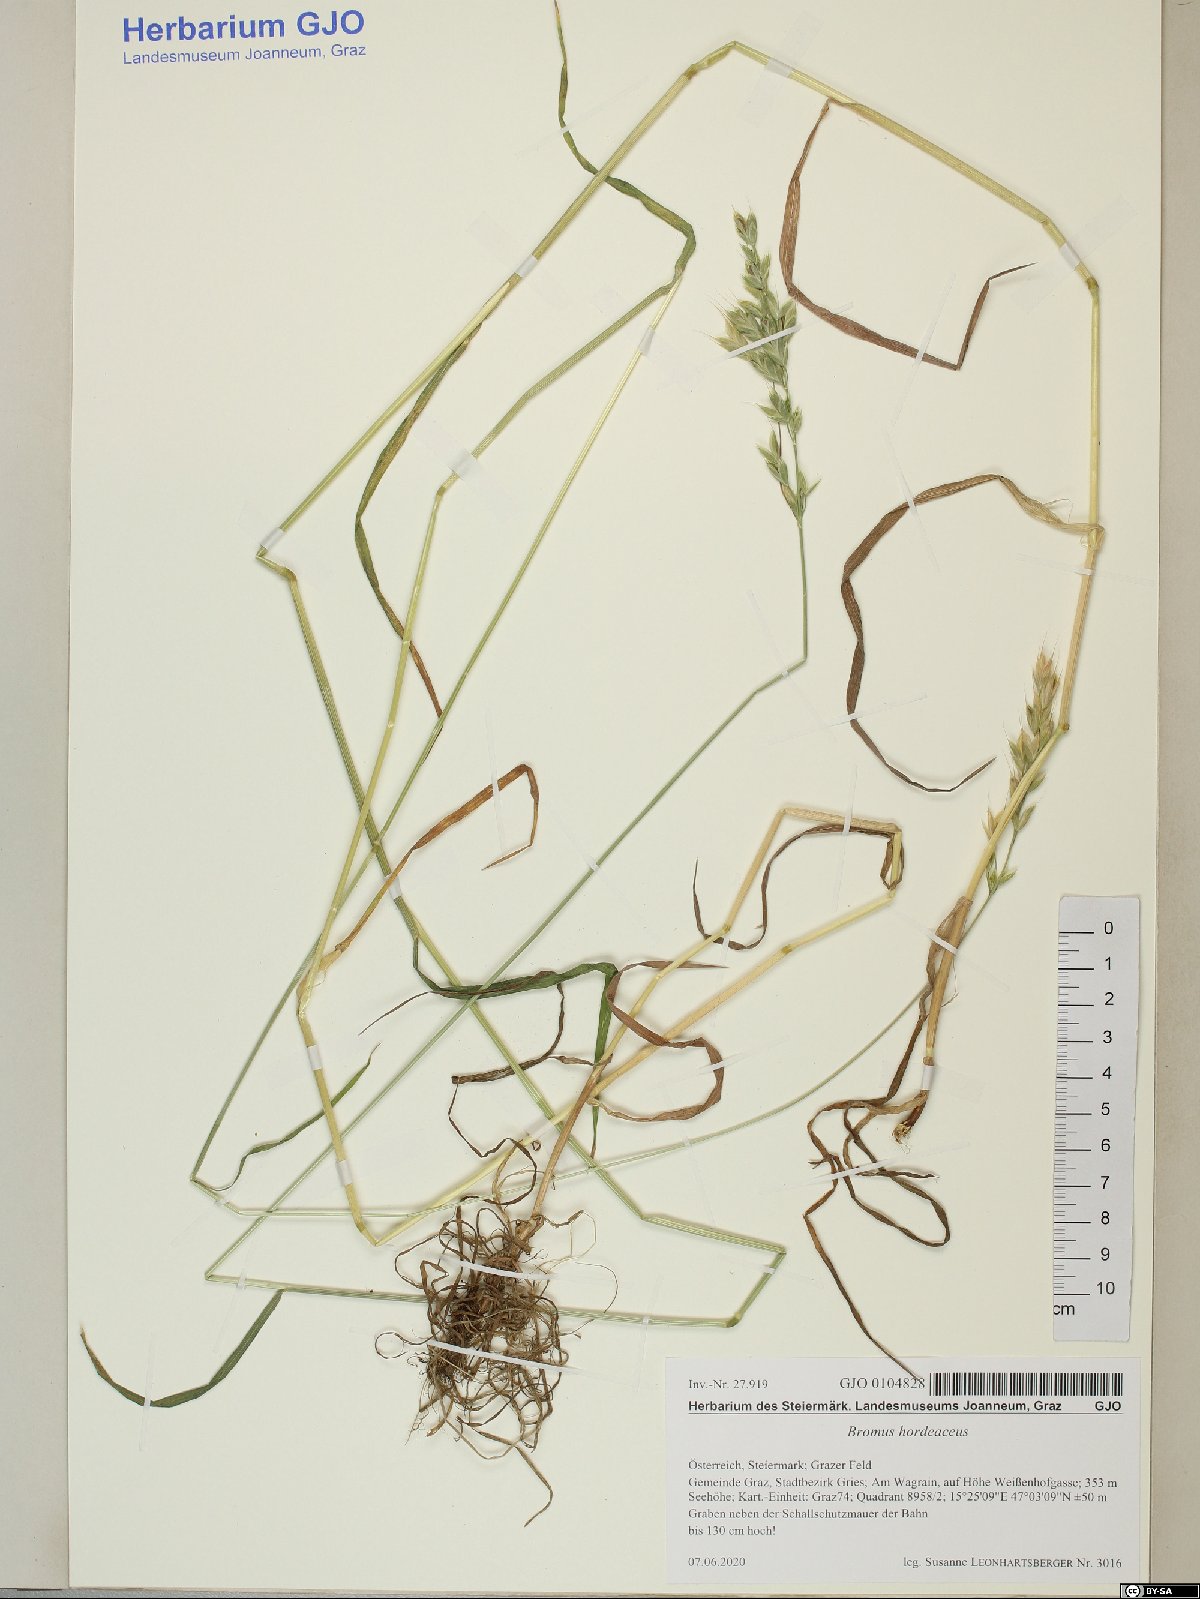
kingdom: Plantae
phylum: Tracheophyta
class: Liliopsida
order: Poales
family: Poaceae
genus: Bromus
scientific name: Bromus hordeaceus
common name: Soft brome
